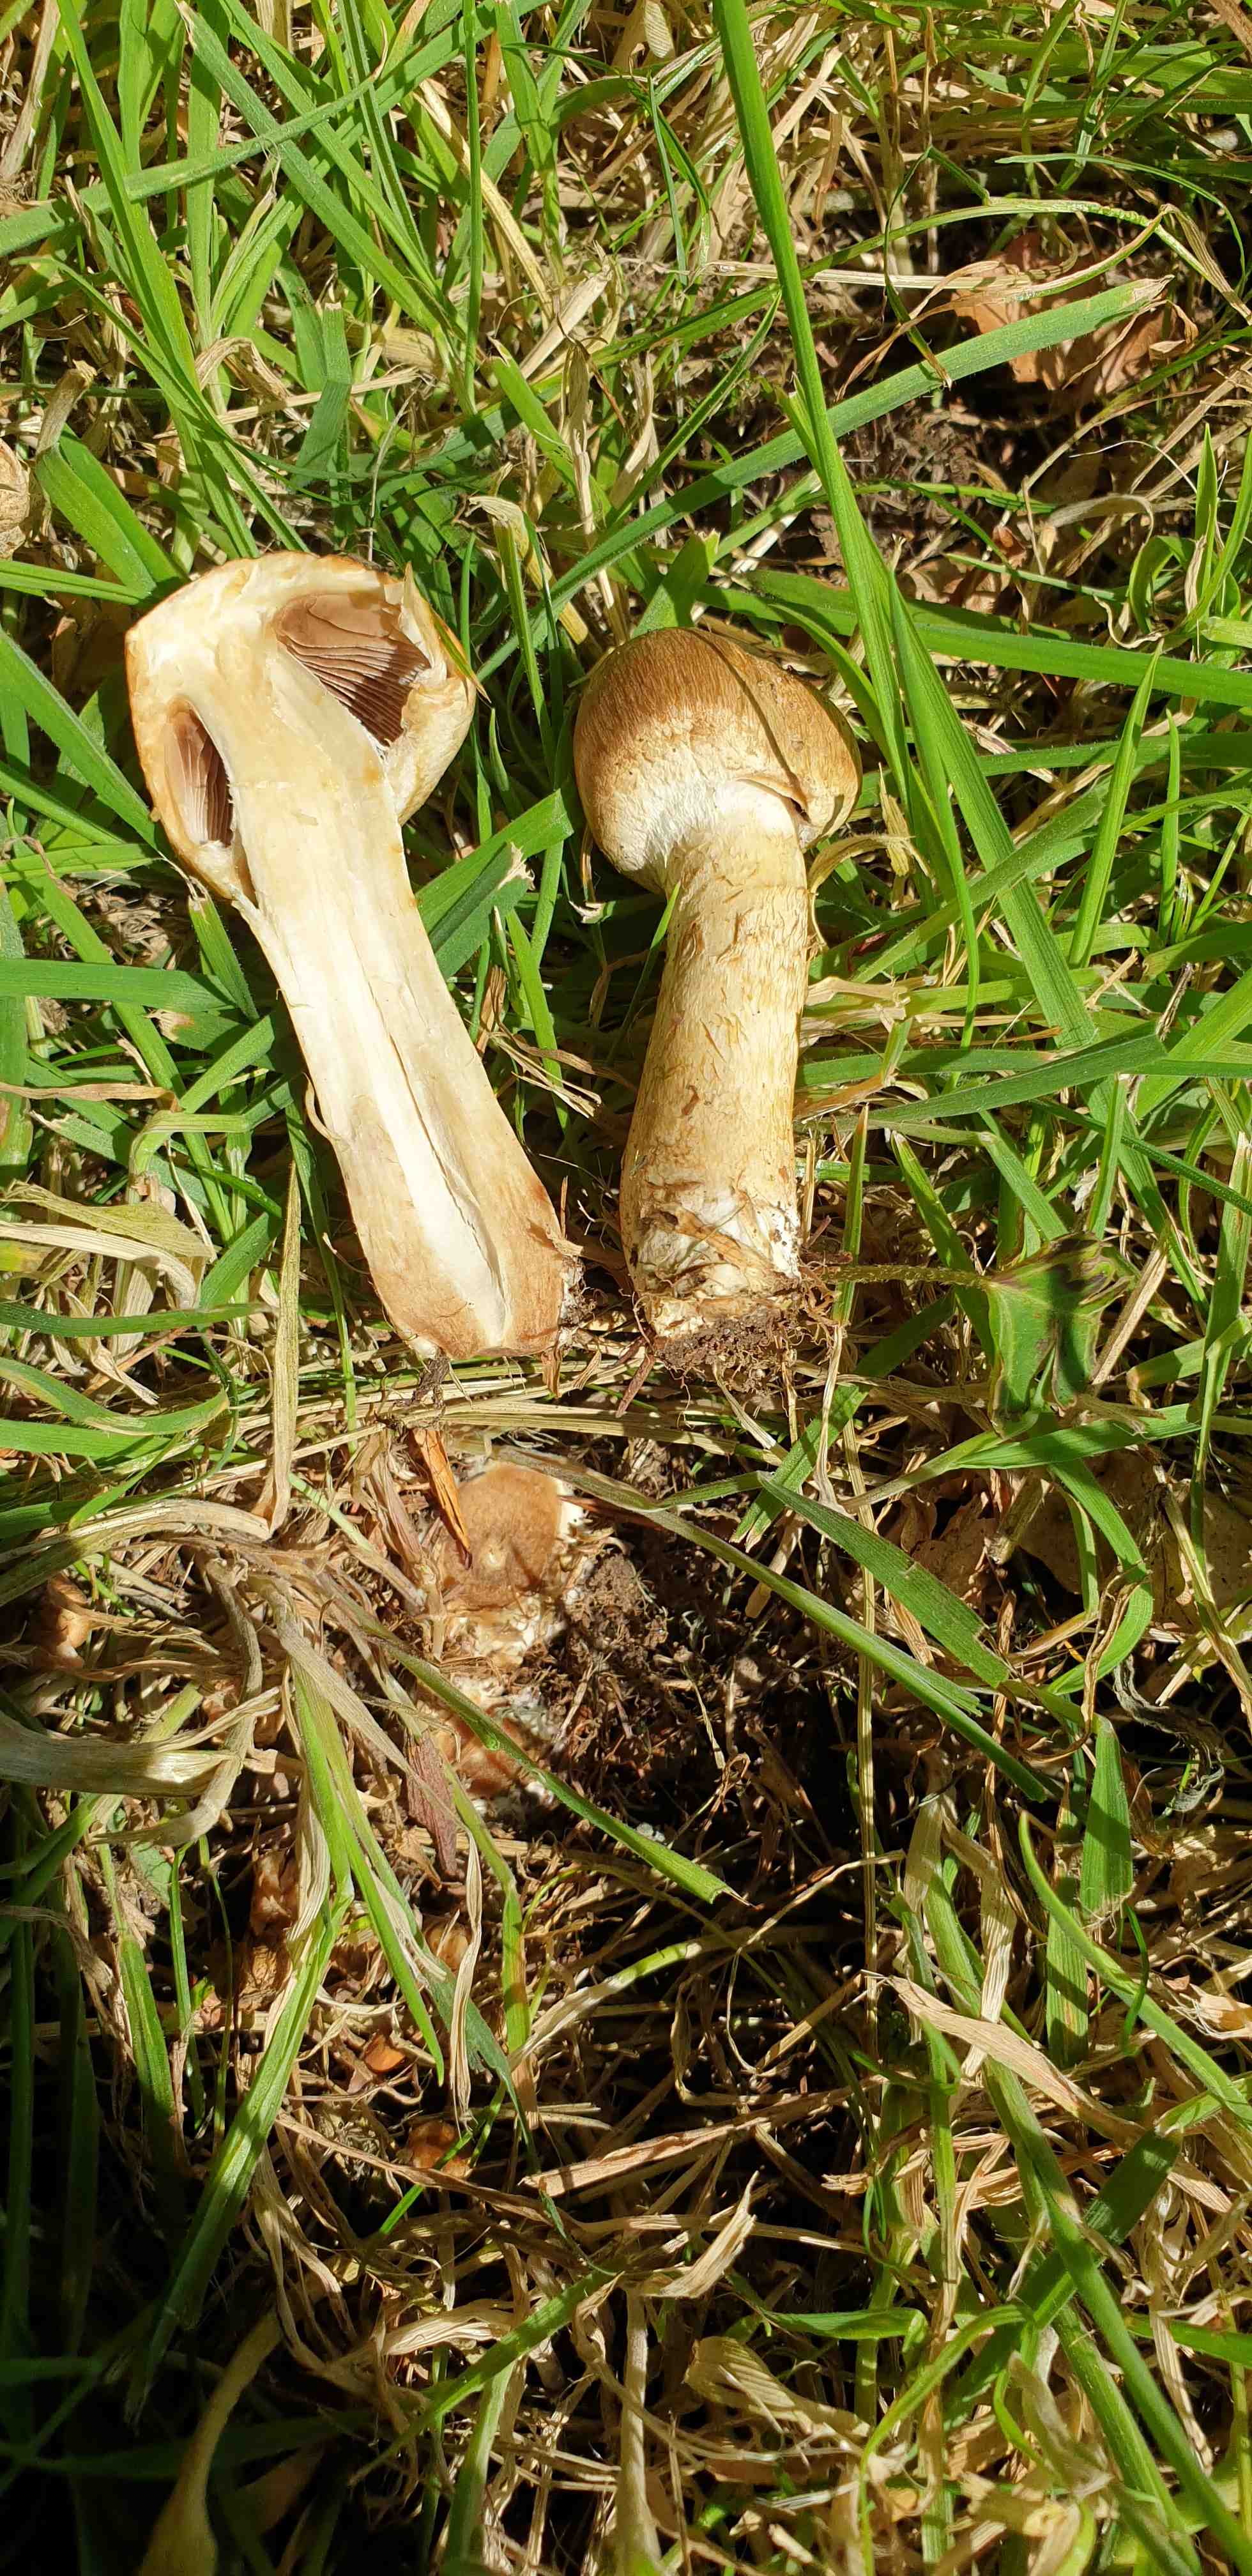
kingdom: Fungi
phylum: Basidiomycota
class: Agaricomycetes
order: Agaricales
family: Psathyrellaceae
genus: Lacrymaria
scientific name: Lacrymaria lacrymabunda
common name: grædende mørkhat
